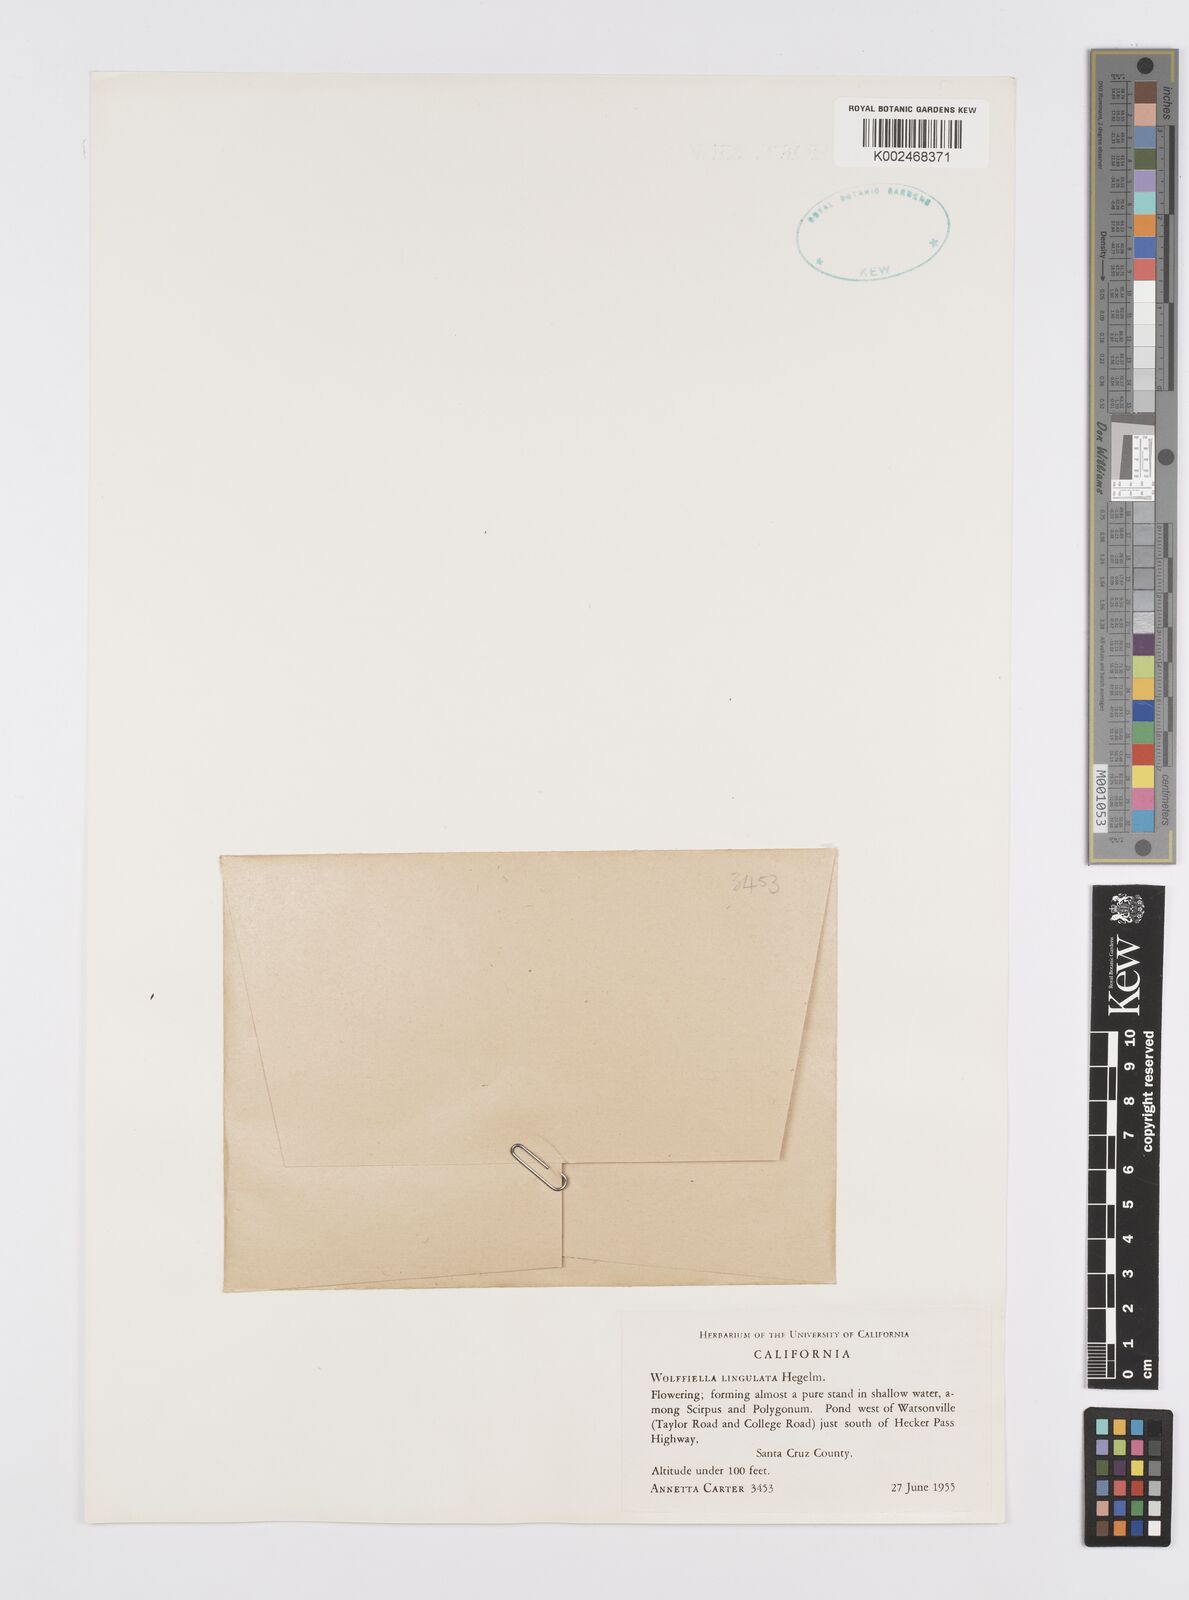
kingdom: Plantae
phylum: Tracheophyta
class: Liliopsida
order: Alismatales
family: Araceae
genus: Wolffiella
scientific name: Wolffiella lingulata
